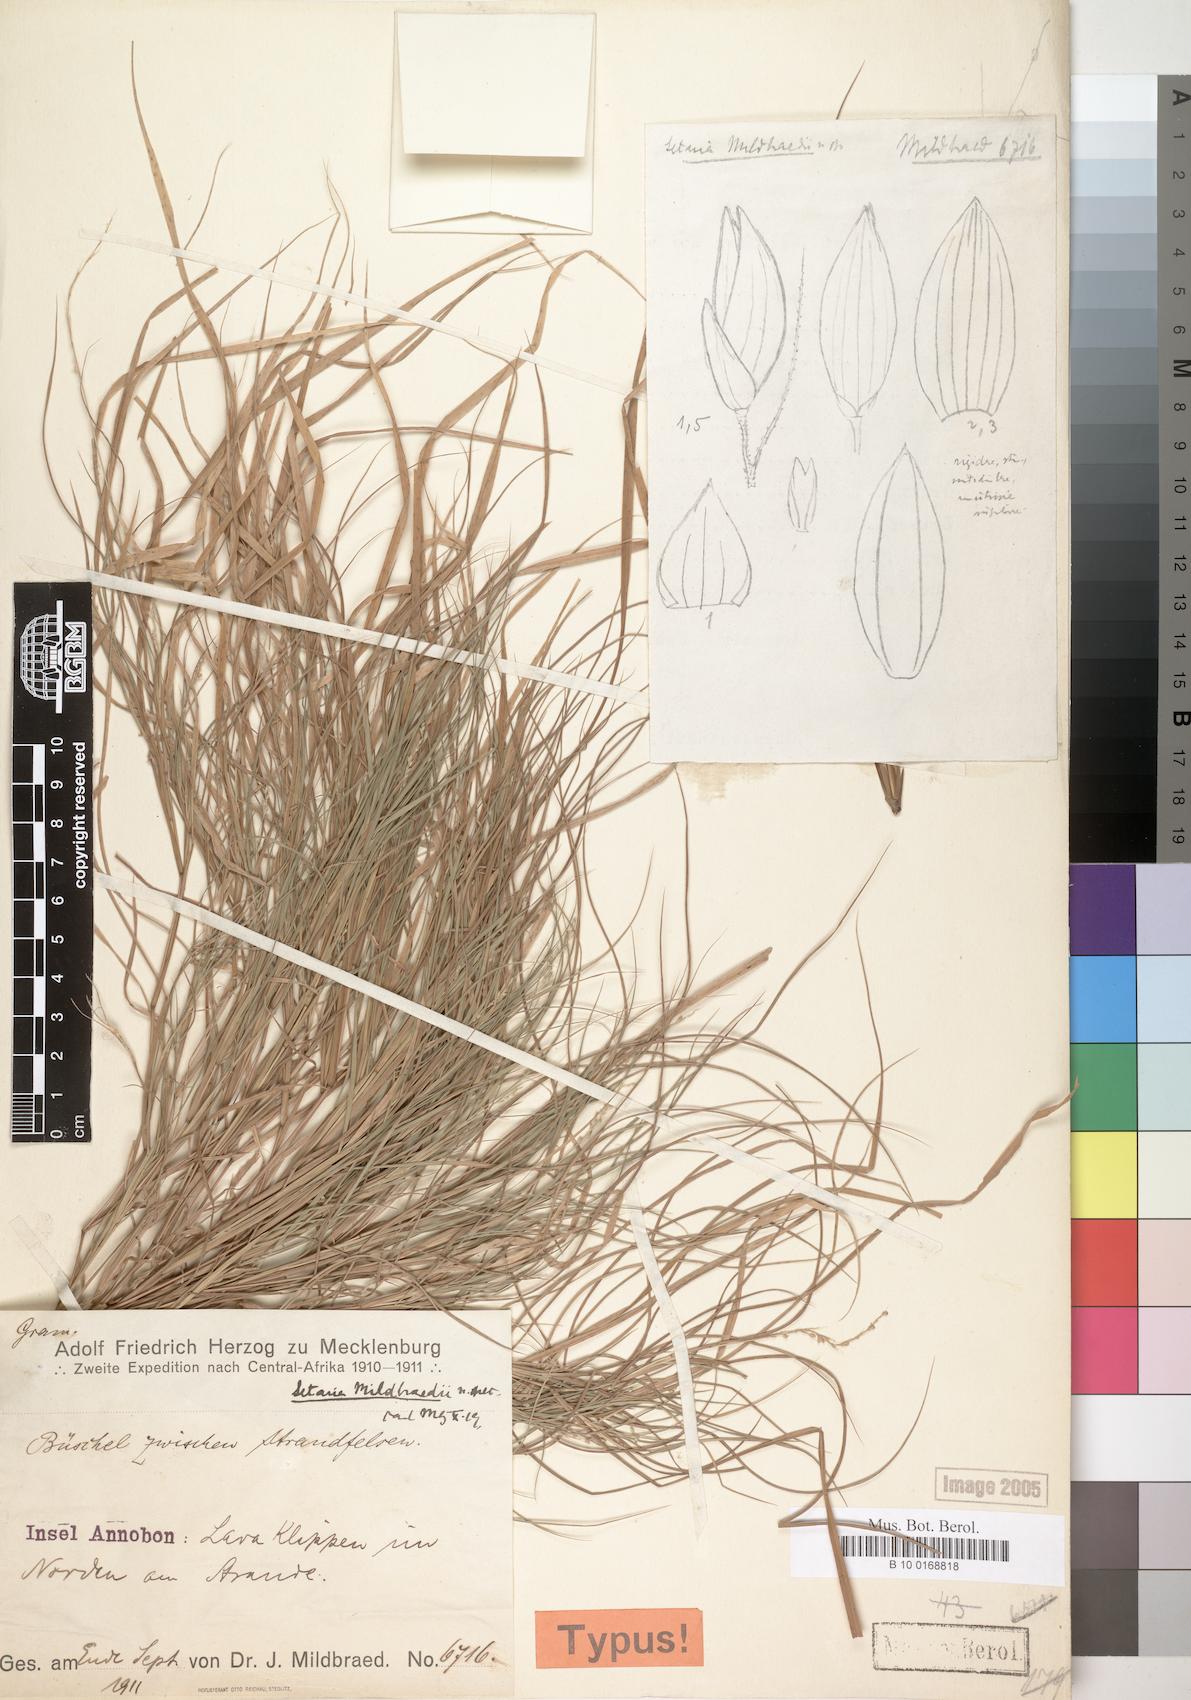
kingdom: Plantae
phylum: Tracheophyta
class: Liliopsida
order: Poales
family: Poaceae
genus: Setaria
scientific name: Setaria mildbraedii
